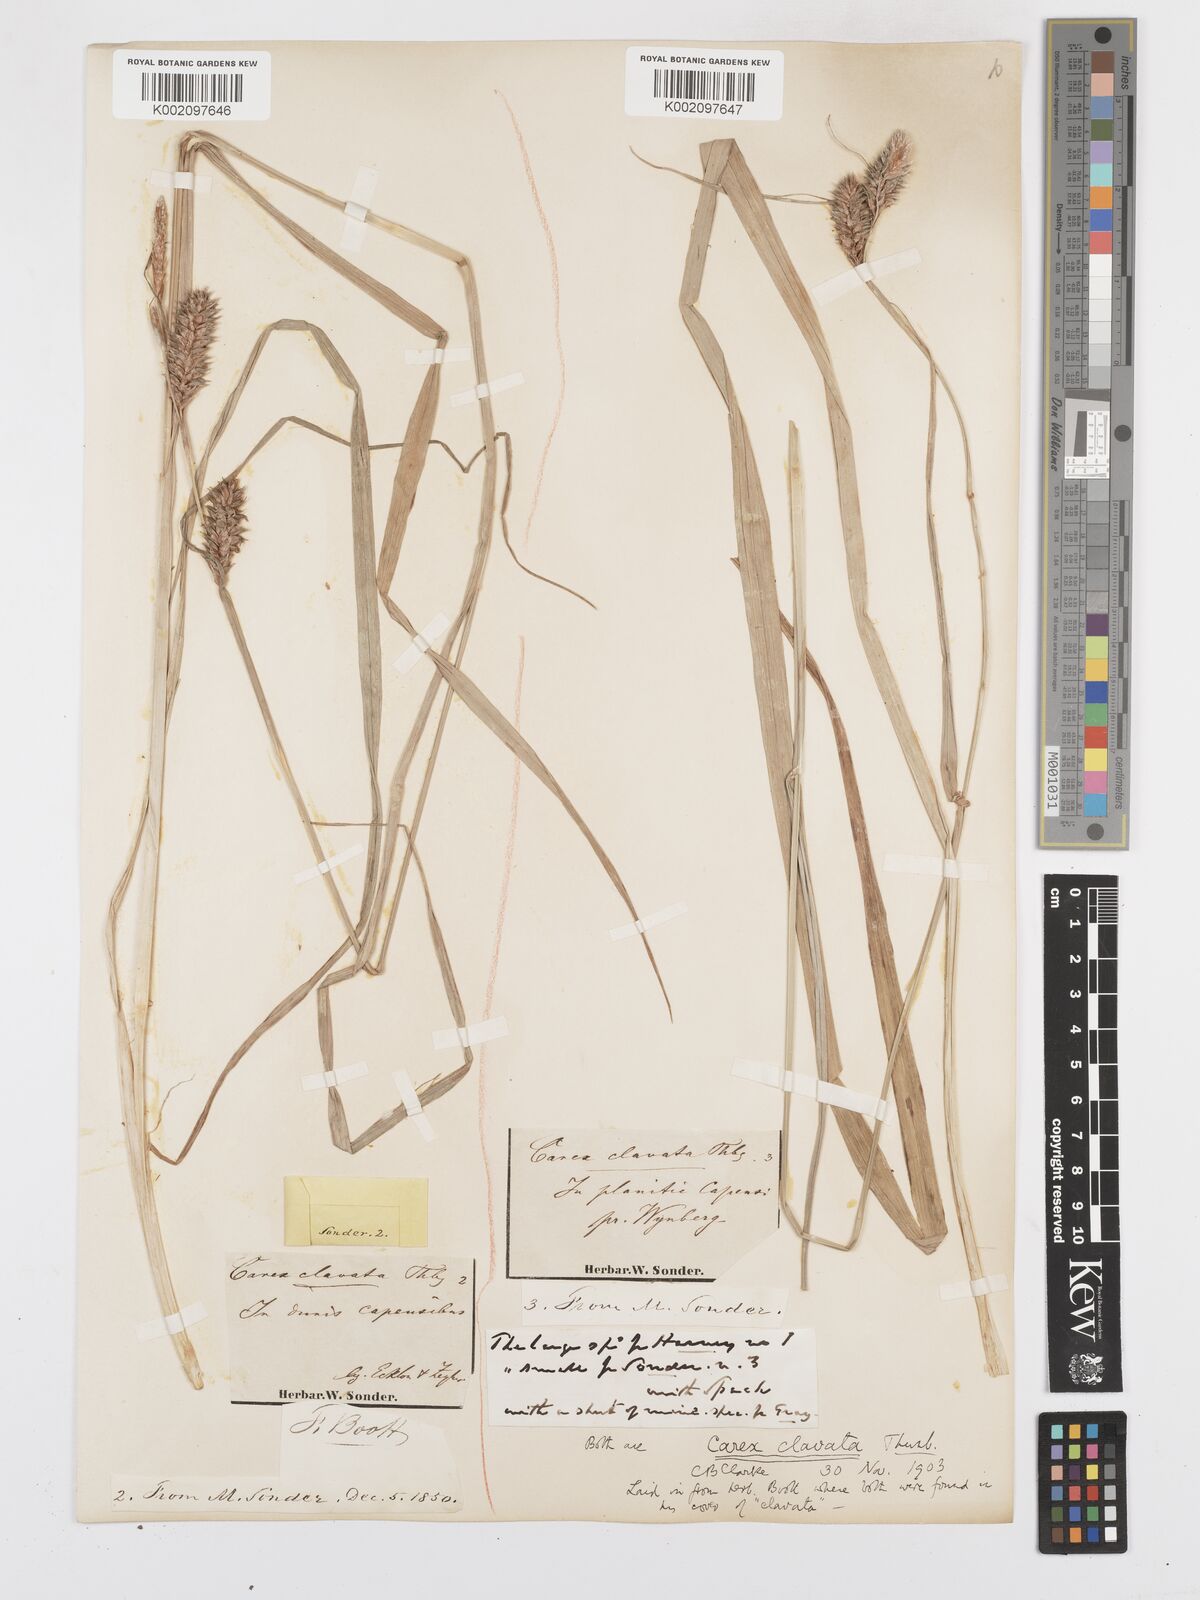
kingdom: Plantae
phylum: Tracheophyta
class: Liliopsida
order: Poales
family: Cyperaceae
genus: Carex
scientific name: Carex clavata
